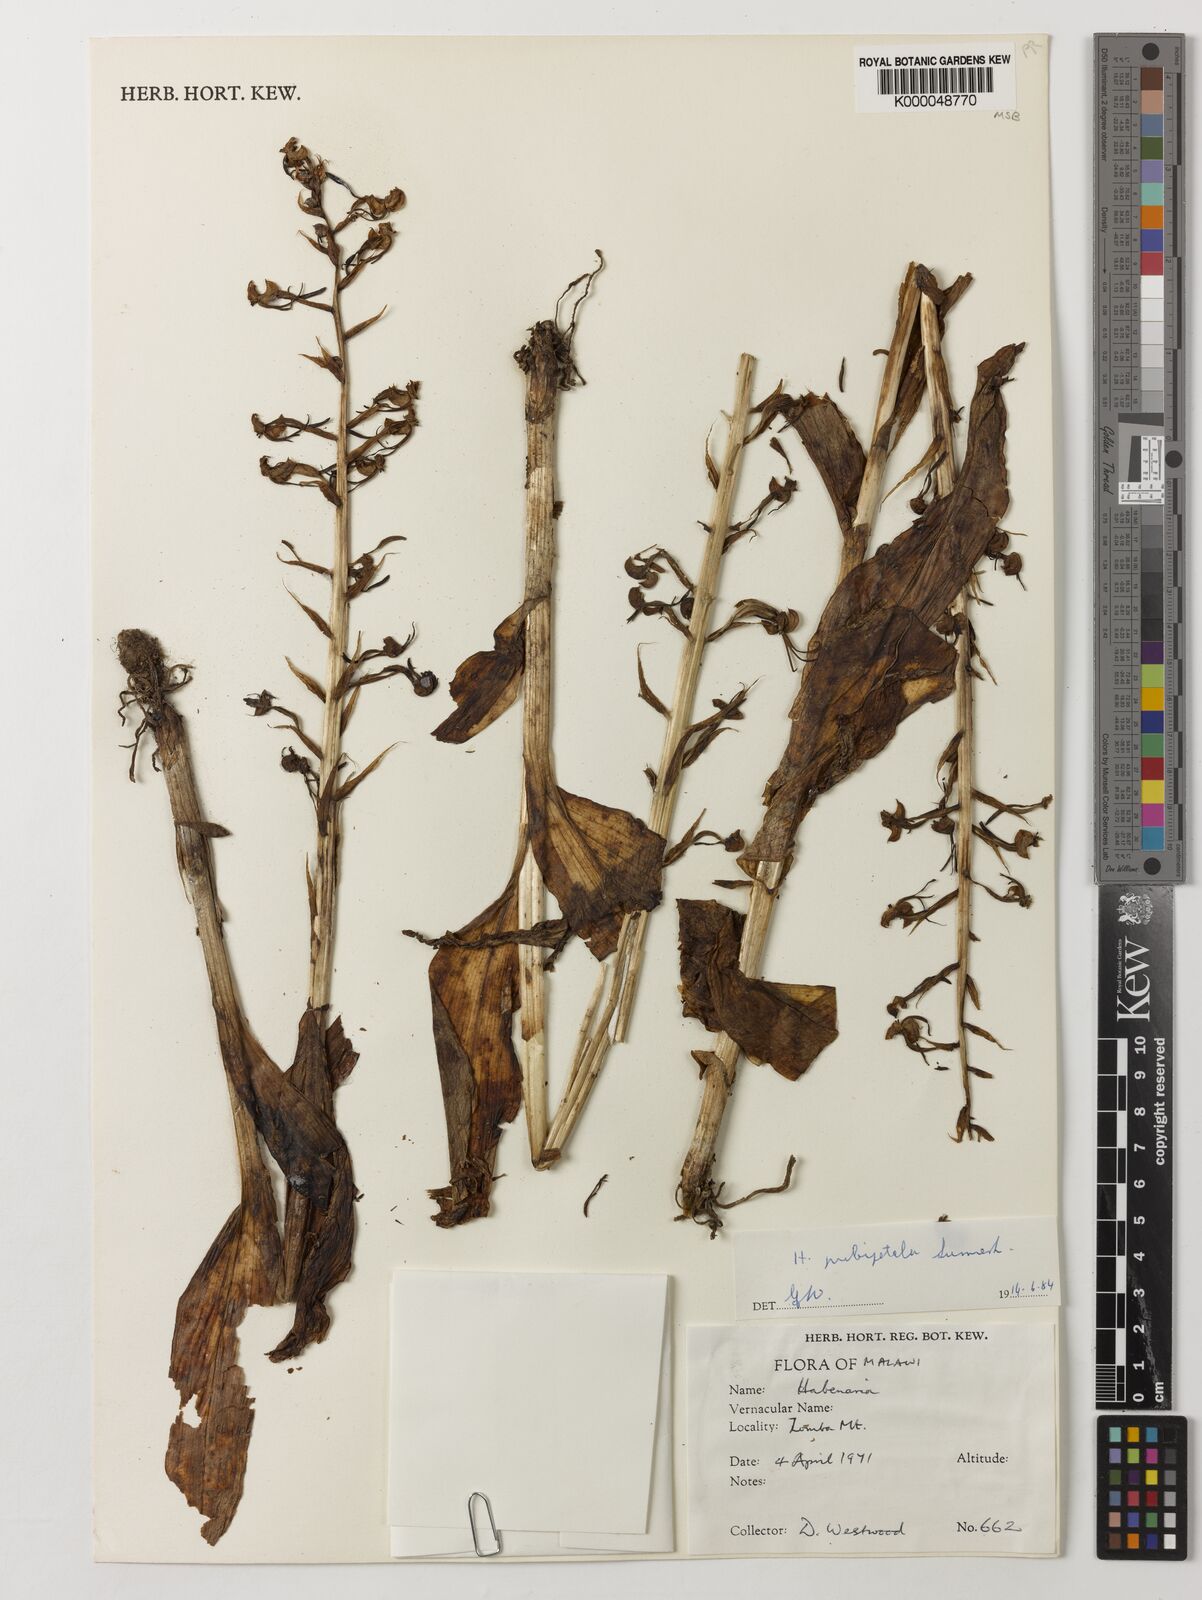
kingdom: Plantae
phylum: Tracheophyta
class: Liliopsida
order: Asparagales
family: Orchidaceae
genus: Habenaria
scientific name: Habenaria pubipetala
